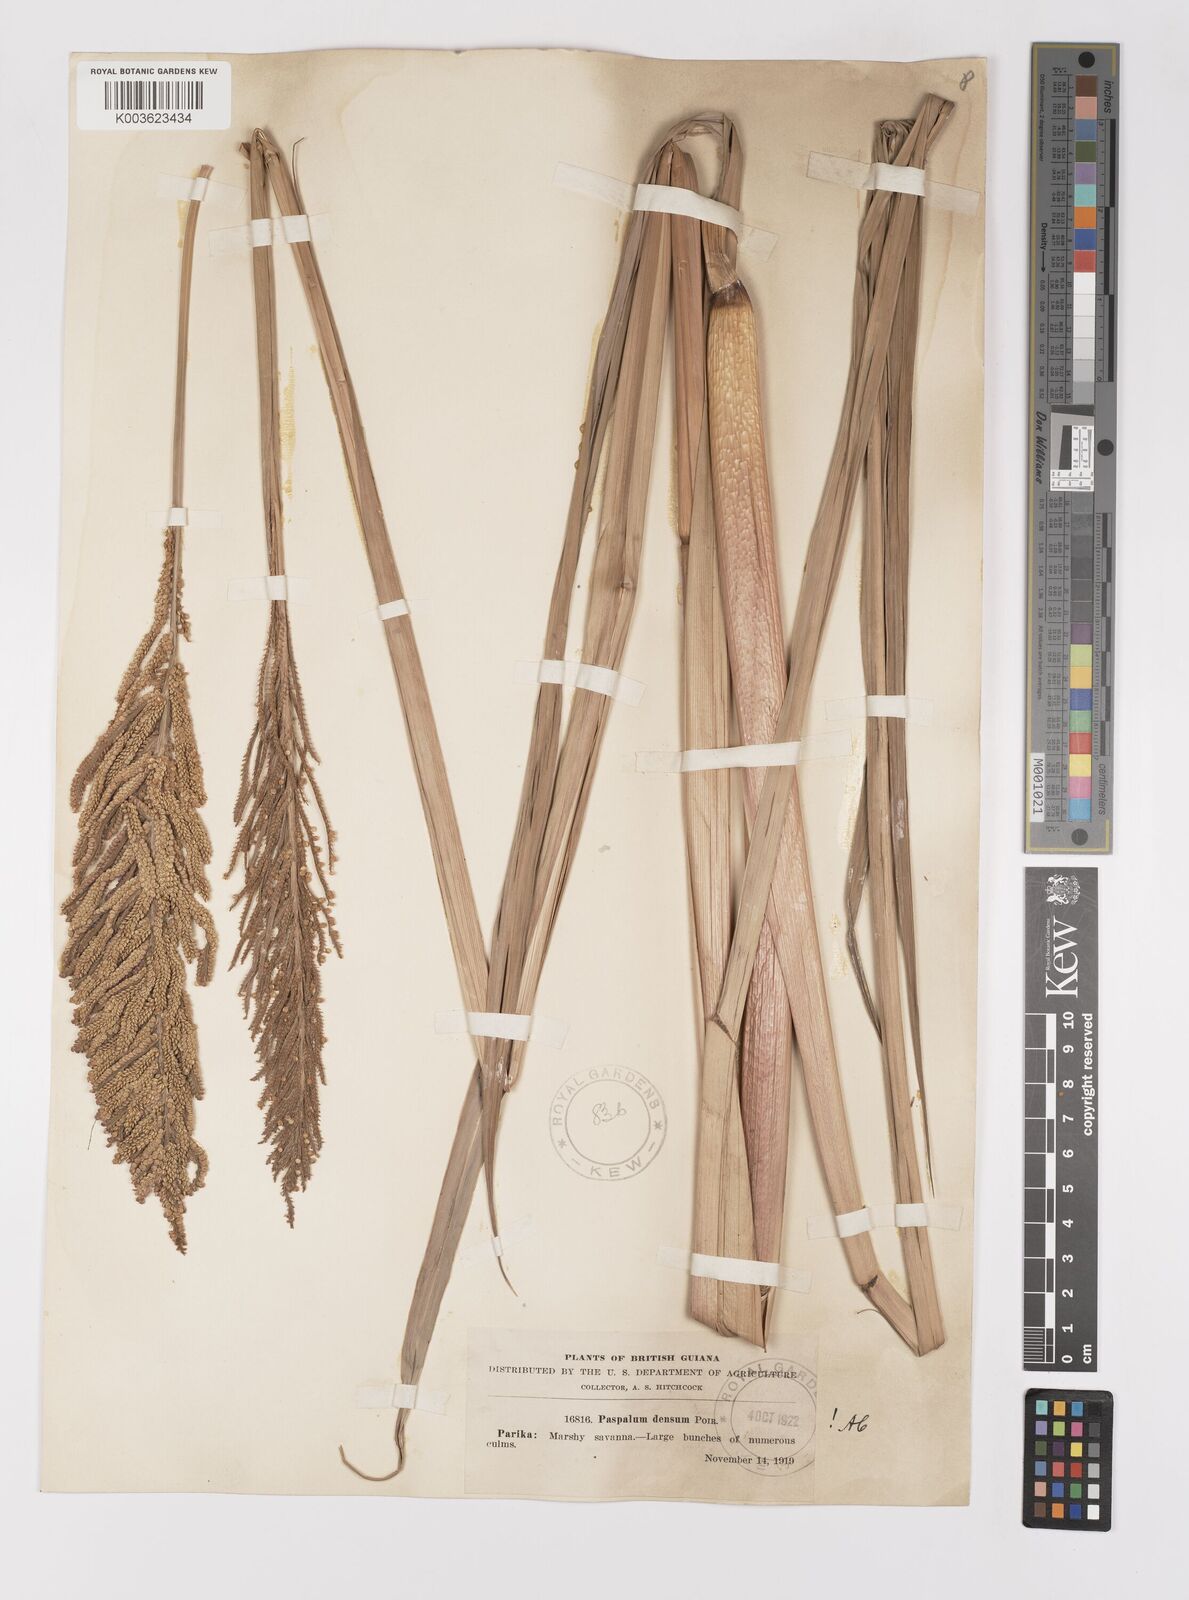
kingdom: Plantae
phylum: Tracheophyta
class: Liliopsida
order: Poales
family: Poaceae
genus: Paspalum
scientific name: Paspalum densum
